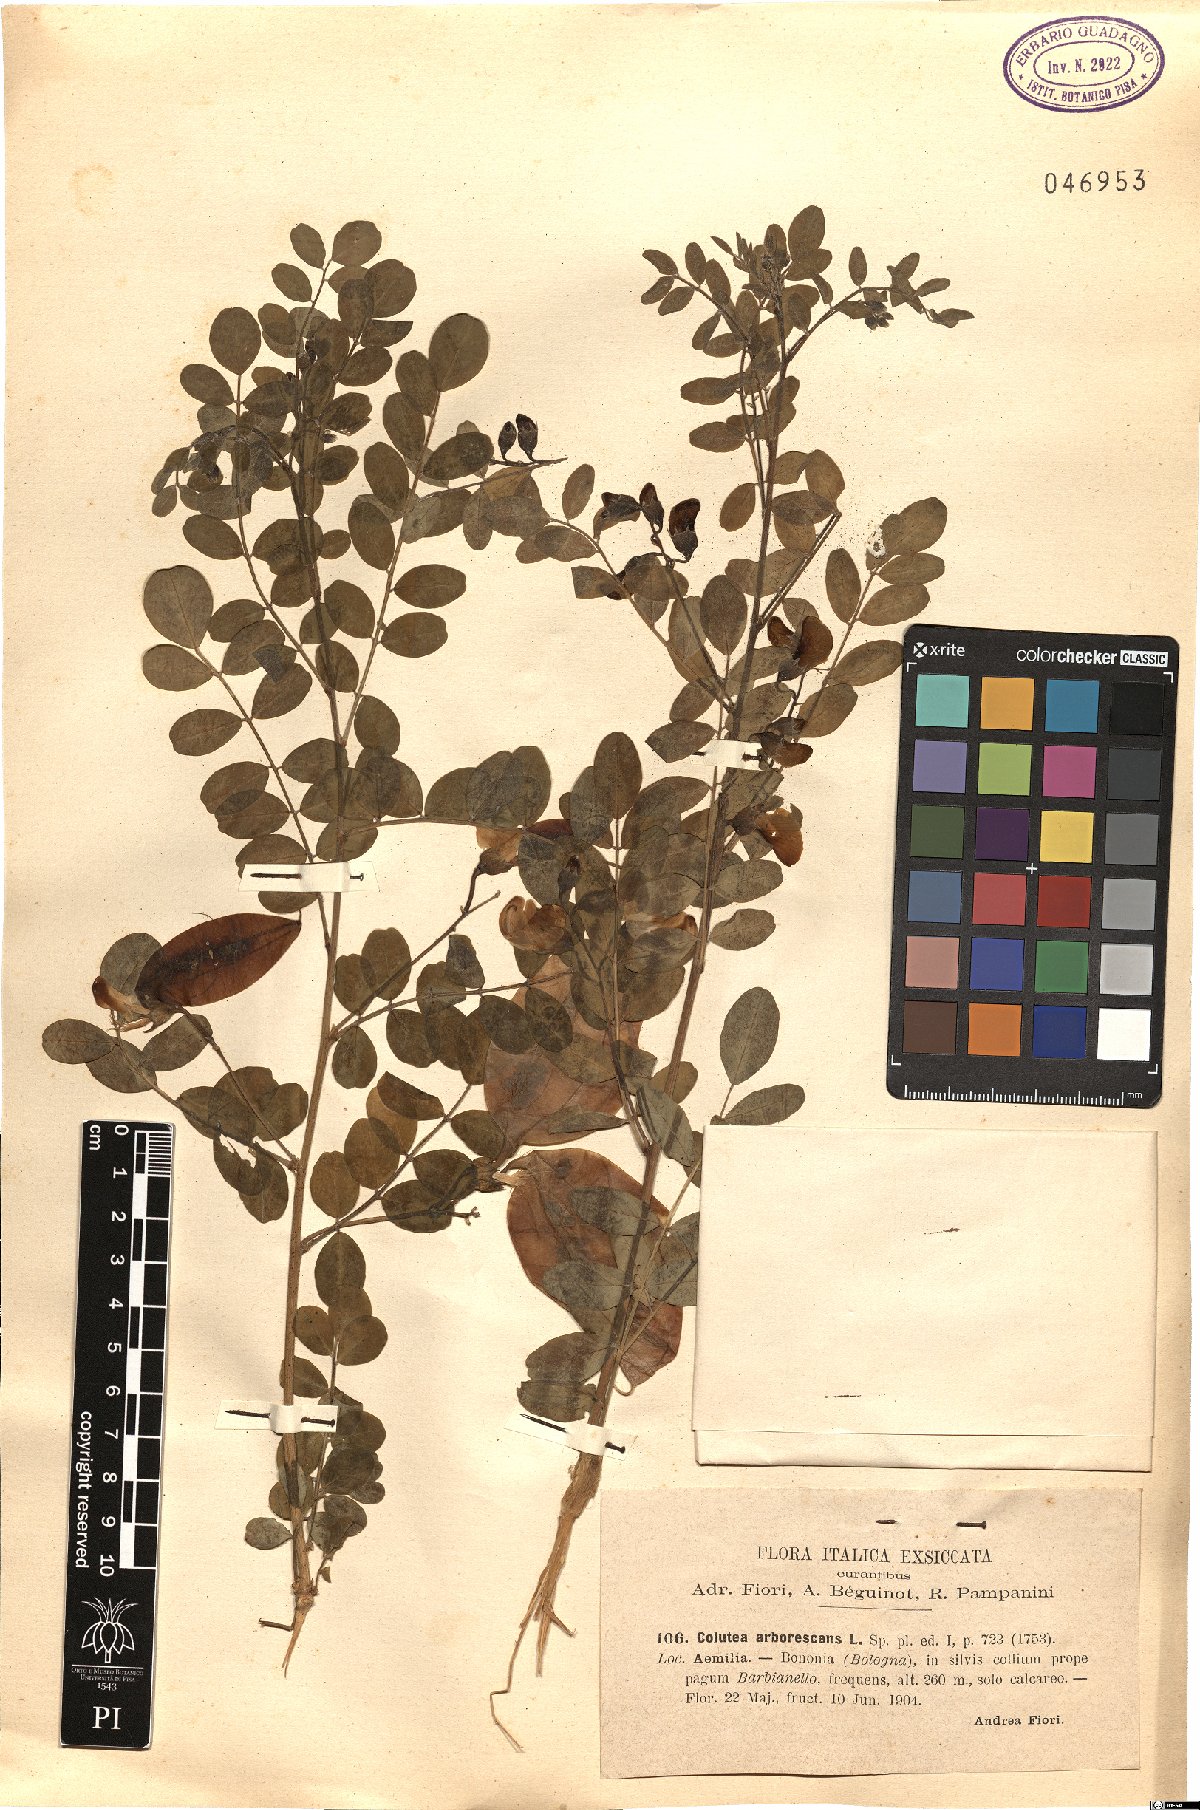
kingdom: Plantae
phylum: Tracheophyta
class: Magnoliopsida
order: Fabales
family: Fabaceae
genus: Colutea
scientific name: Colutea arborescens
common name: Bladder-senna
